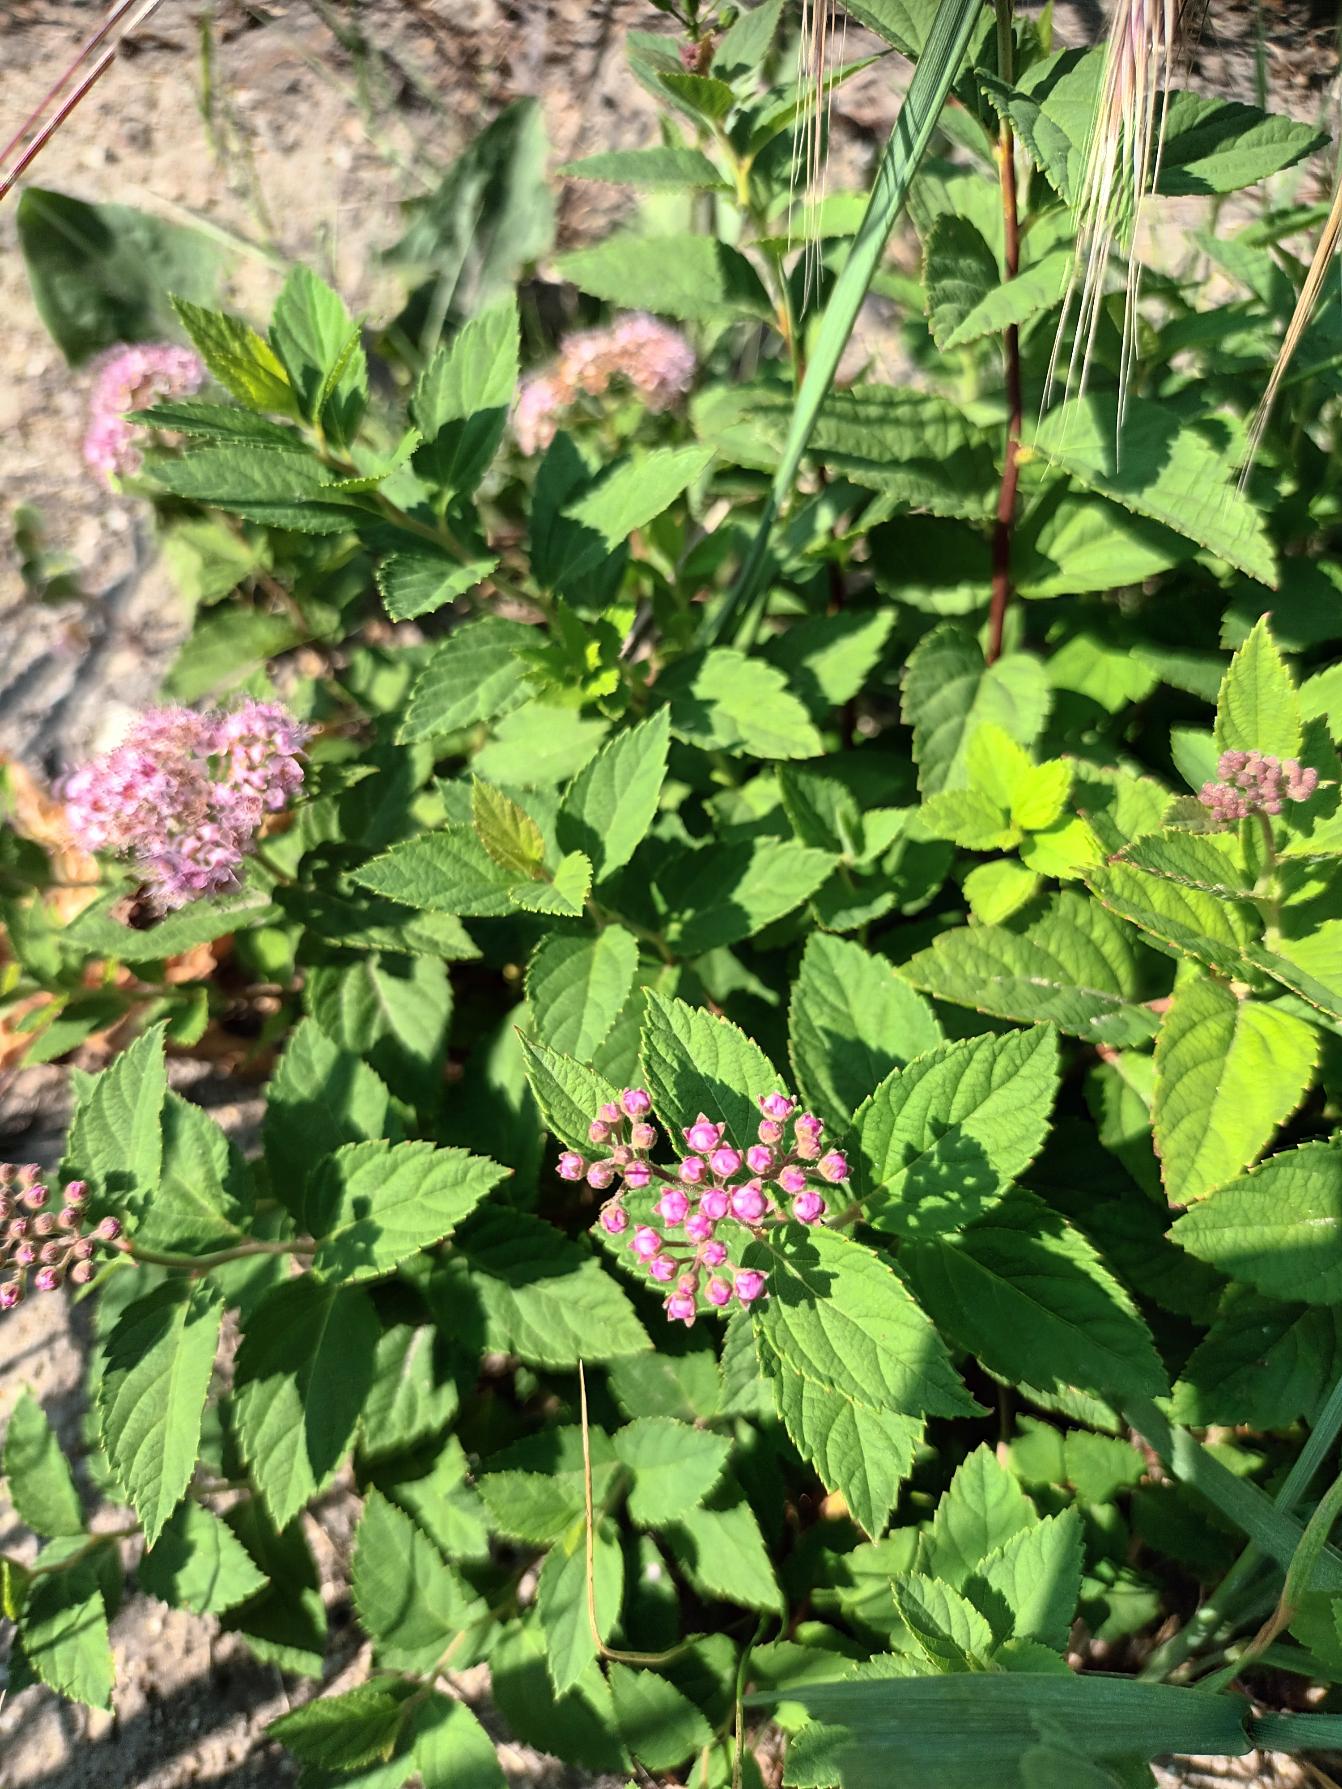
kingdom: Plantae
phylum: Tracheophyta
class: Magnoliopsida
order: Rosales
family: Rosaceae
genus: Spiraea
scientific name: Spiraea japonica
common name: Rosen-spiræa
